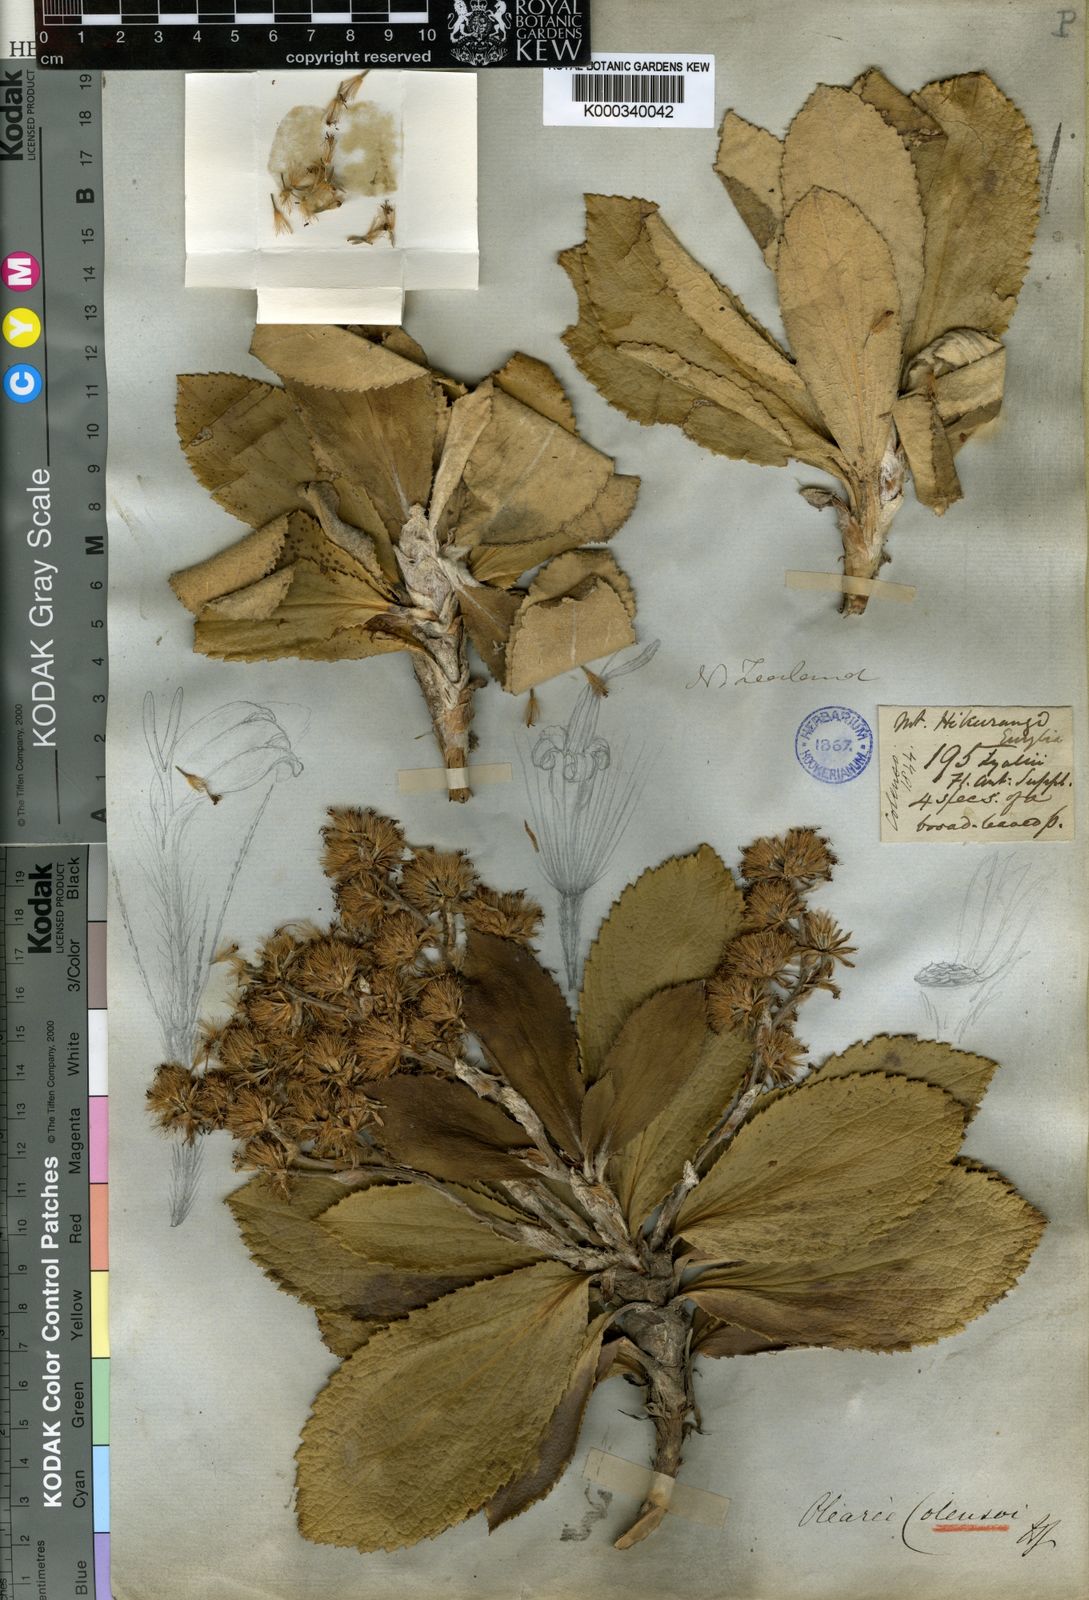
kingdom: Plantae
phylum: Tracheophyta
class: Magnoliopsida
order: Asterales
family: Asteraceae
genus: Macrolearia
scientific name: Macrolearia colensoi
